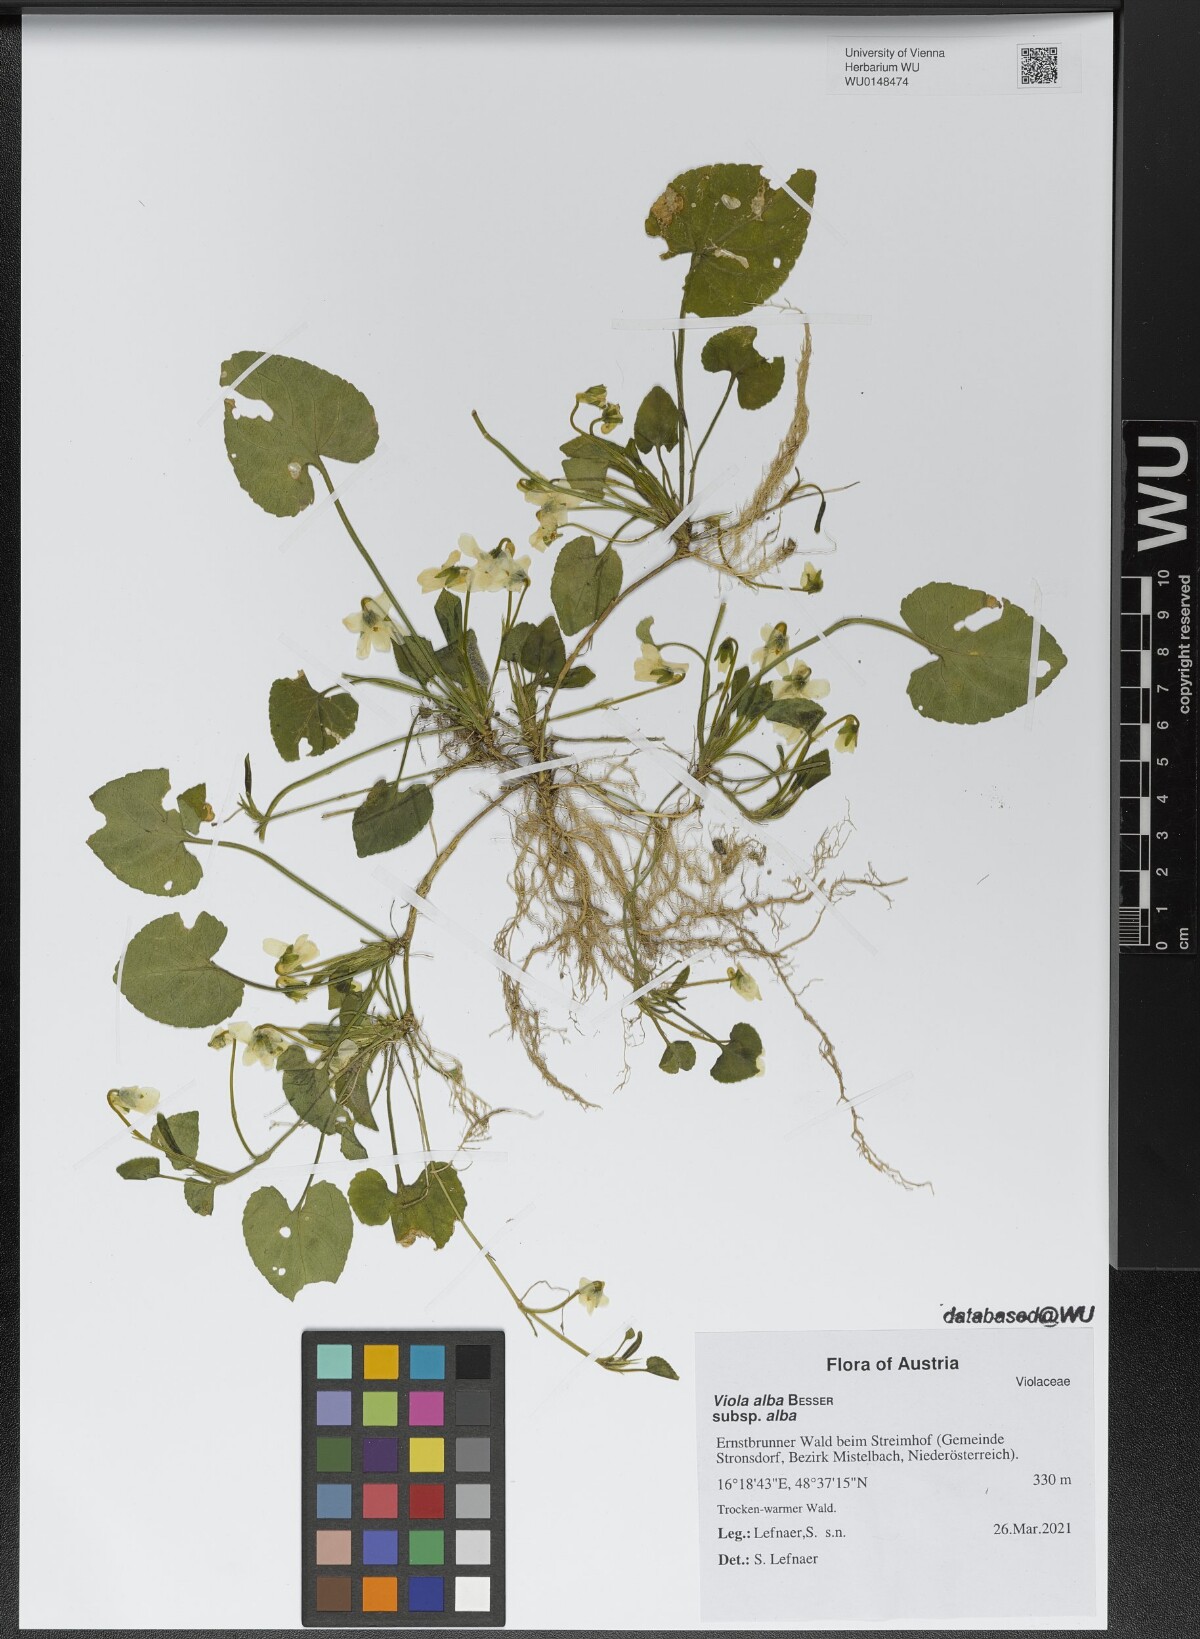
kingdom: Plantae
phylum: Tracheophyta
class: Magnoliopsida
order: Malpighiales
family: Violaceae
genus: Viola
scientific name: Viola alba
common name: White violet
